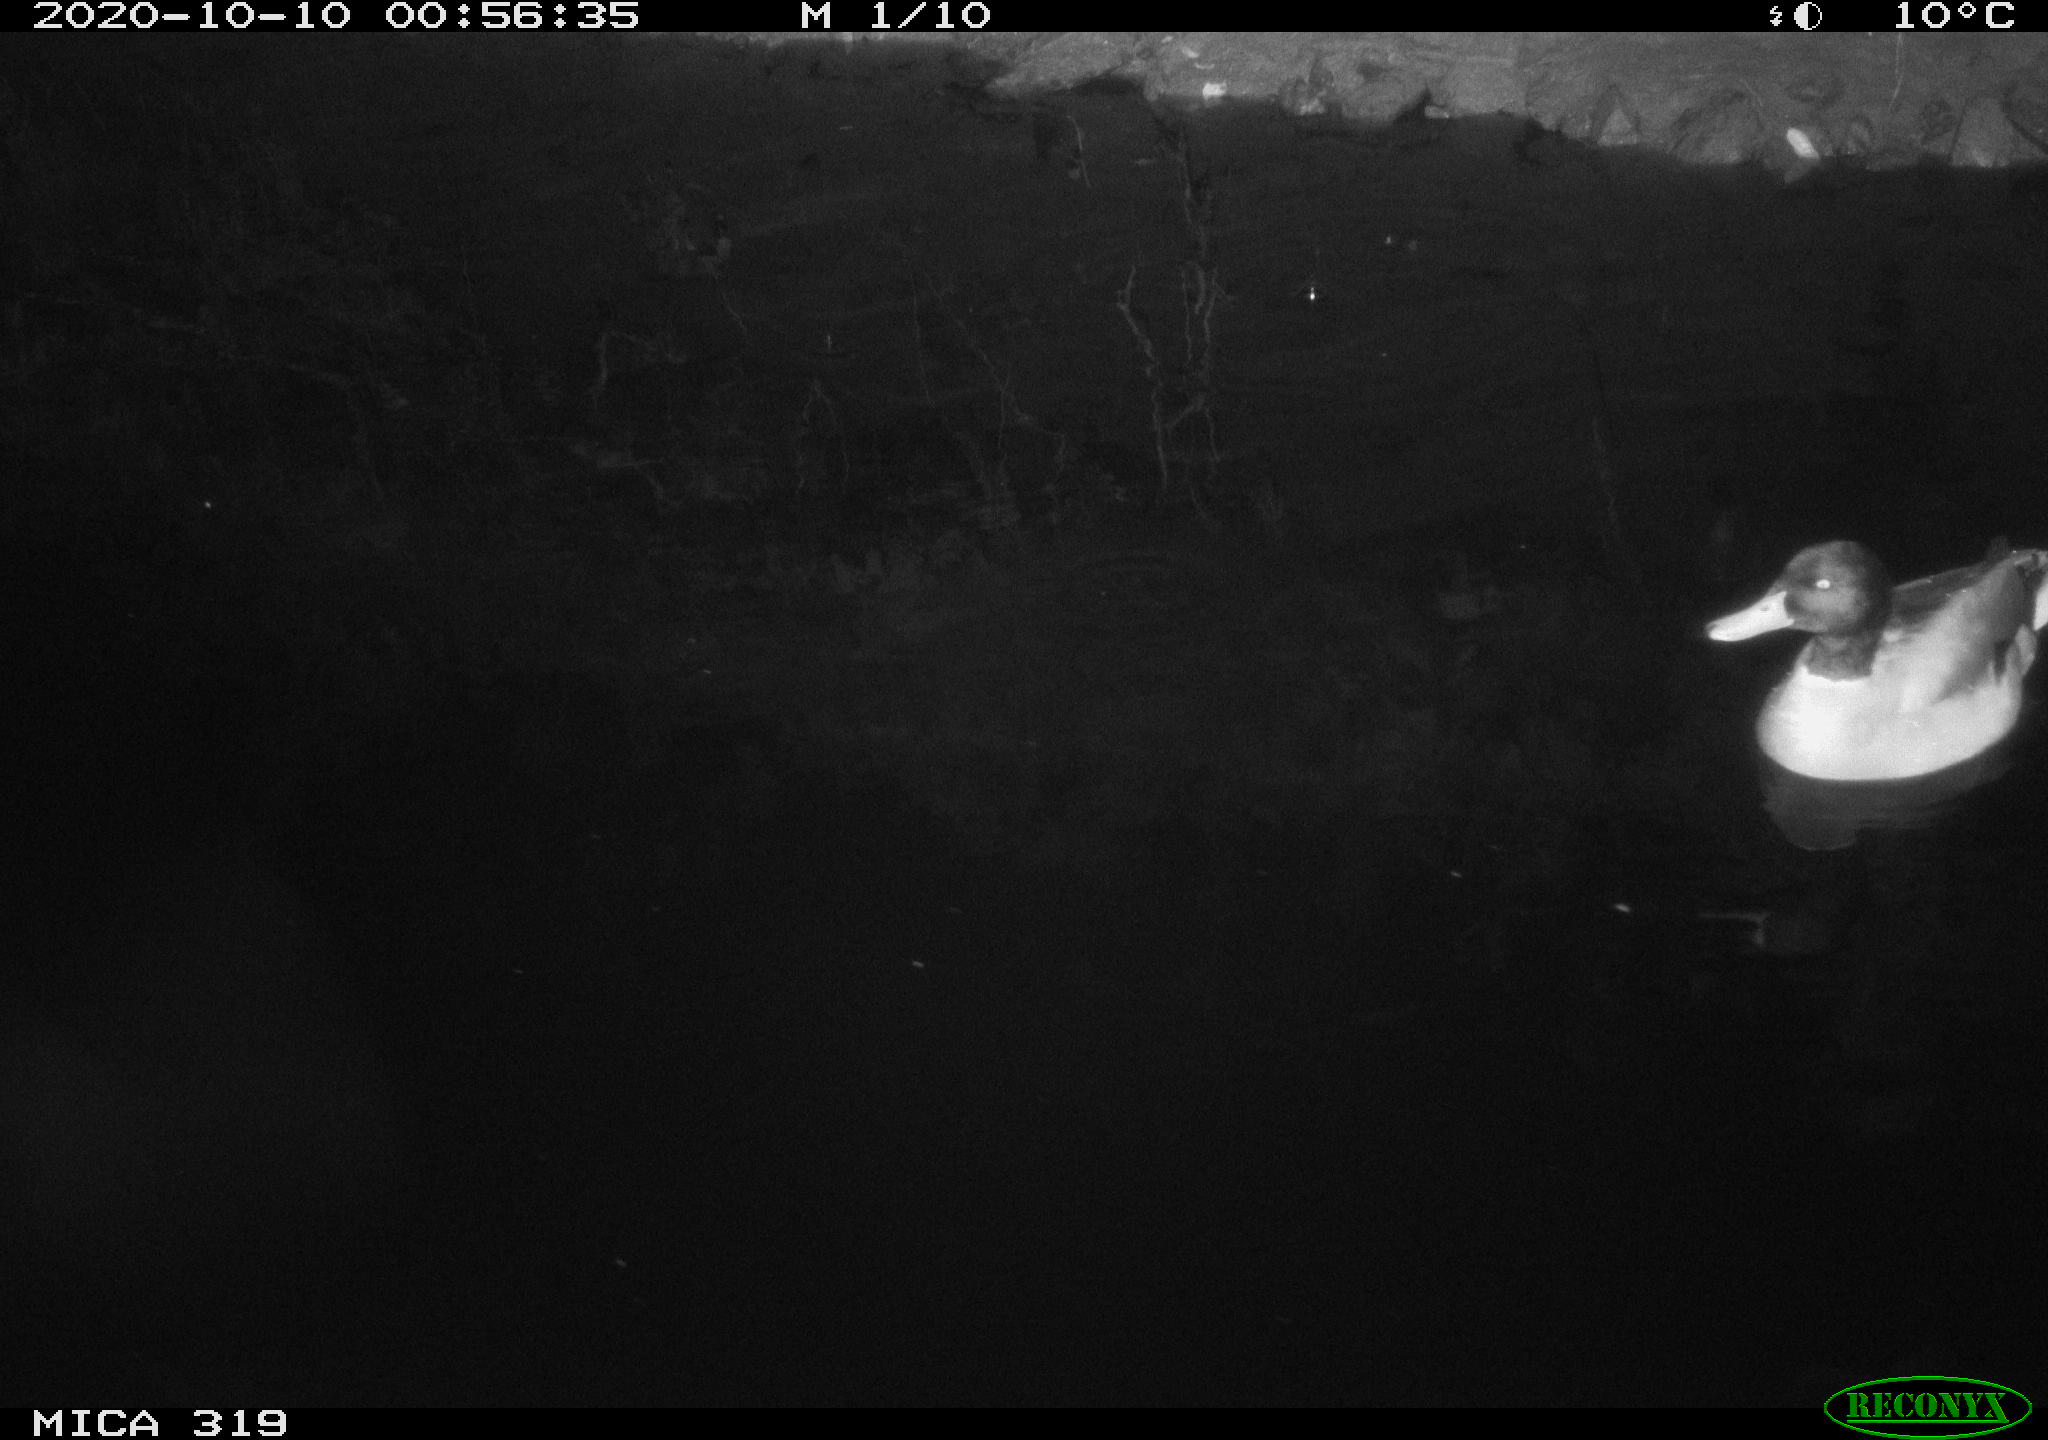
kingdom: Animalia
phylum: Chordata
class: Aves
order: Anseriformes
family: Anatidae
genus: Anas
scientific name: Anas platyrhynchos
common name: Mallard
